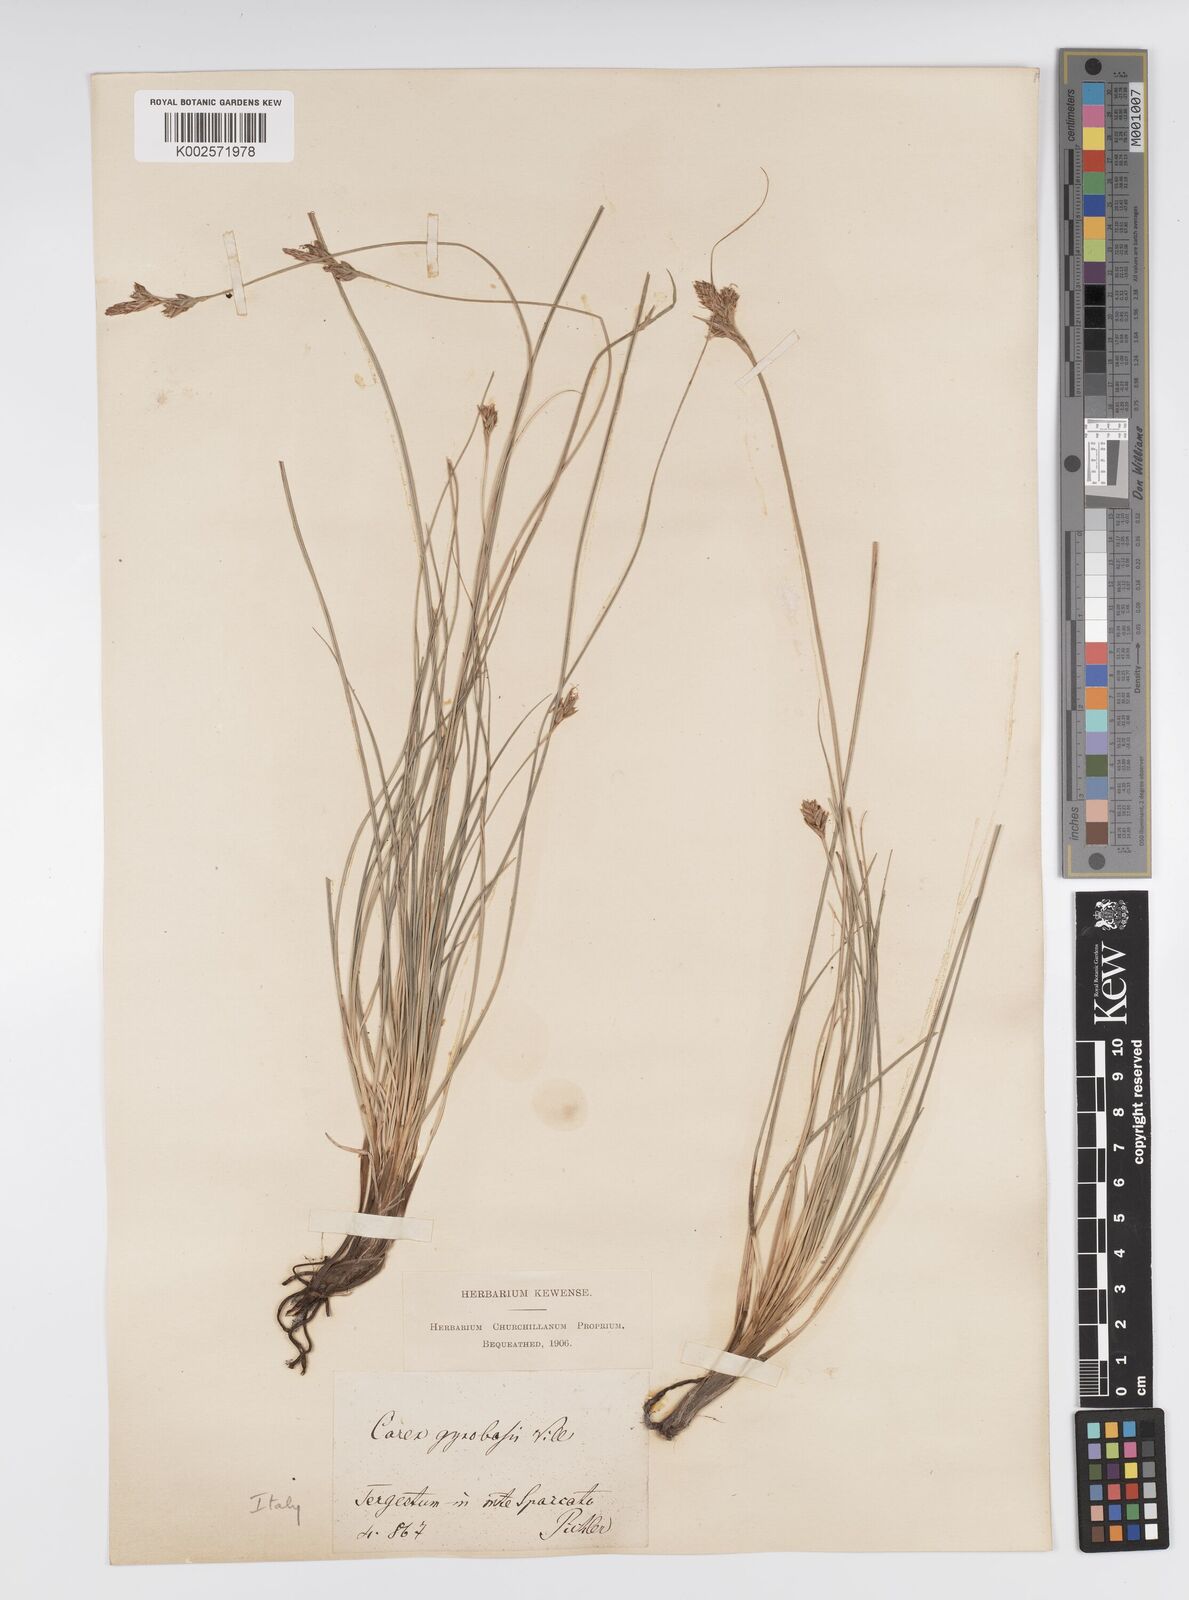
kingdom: Plantae
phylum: Tracheophyta
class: Liliopsida
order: Poales
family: Cyperaceae
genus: Carex
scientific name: Carex halleriana
